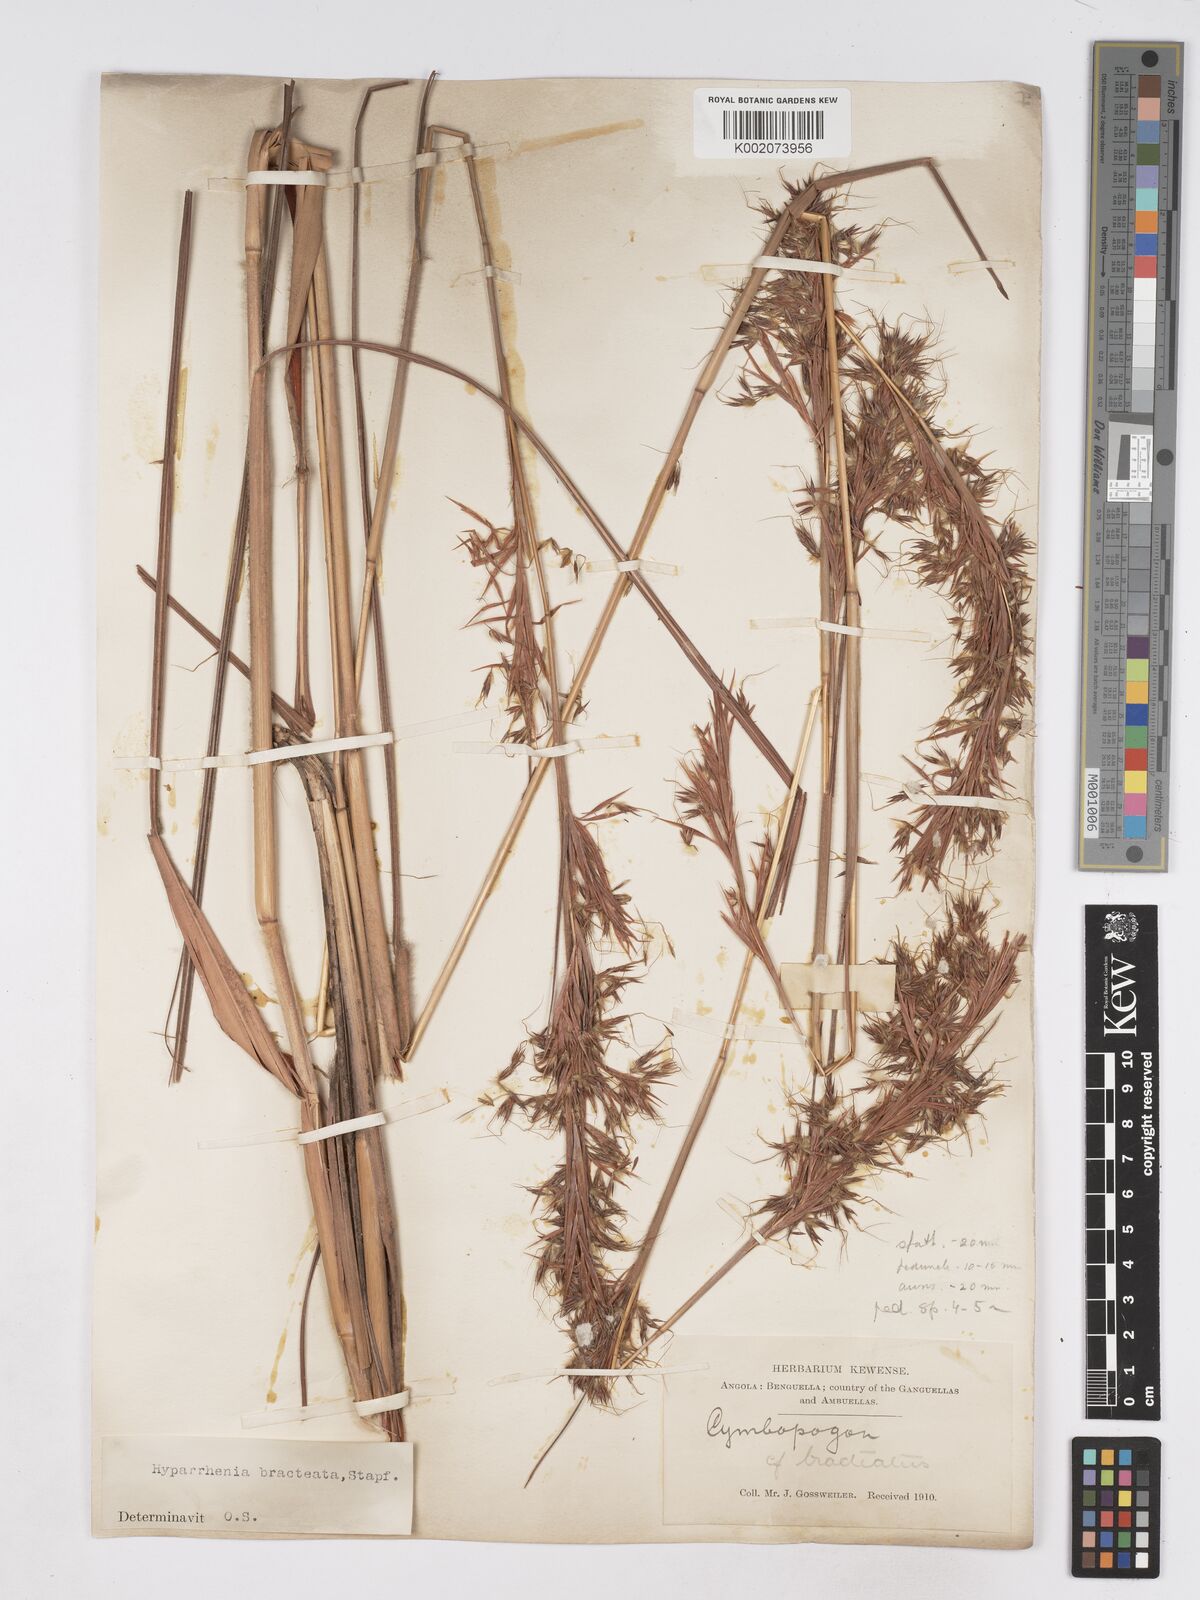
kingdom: Plantae
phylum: Tracheophyta
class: Liliopsida
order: Poales
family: Poaceae
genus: Hyparrhenia
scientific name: Hyparrhenia bracteata
